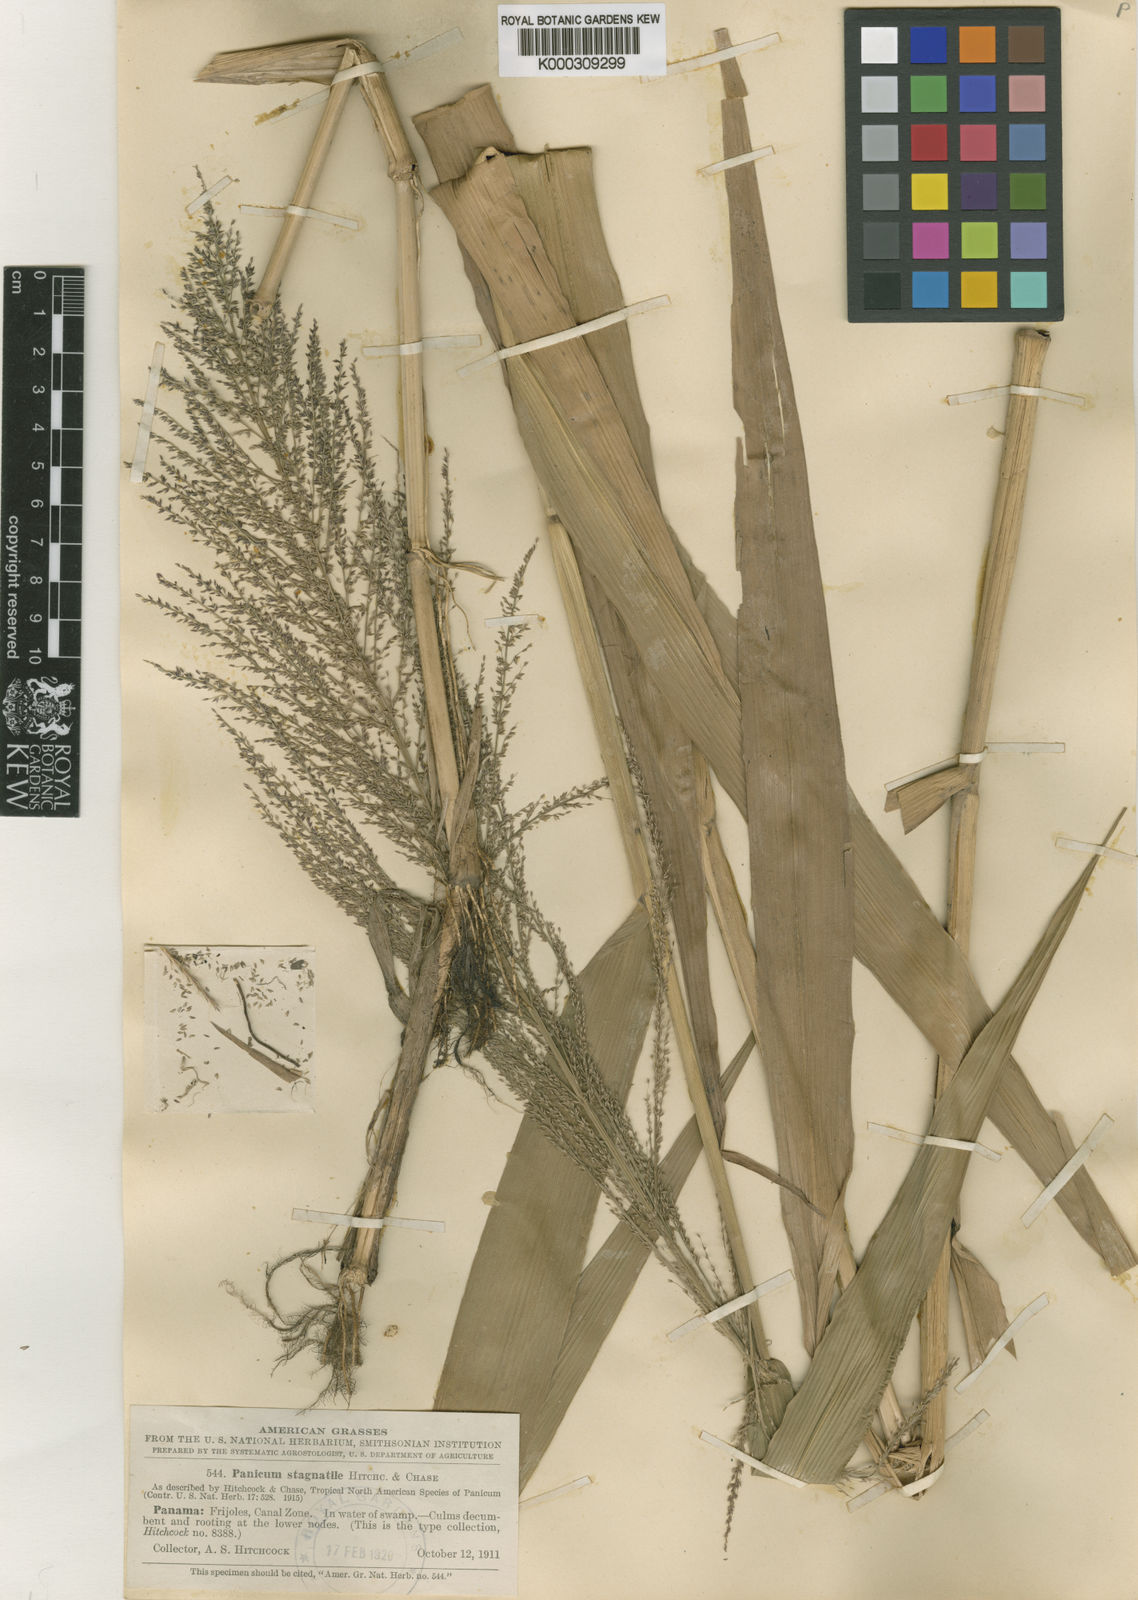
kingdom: Plantae
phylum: Tracheophyta
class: Liliopsida
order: Poales
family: Poaceae
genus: Hymenachne
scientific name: Hymenachne stagnatilis
